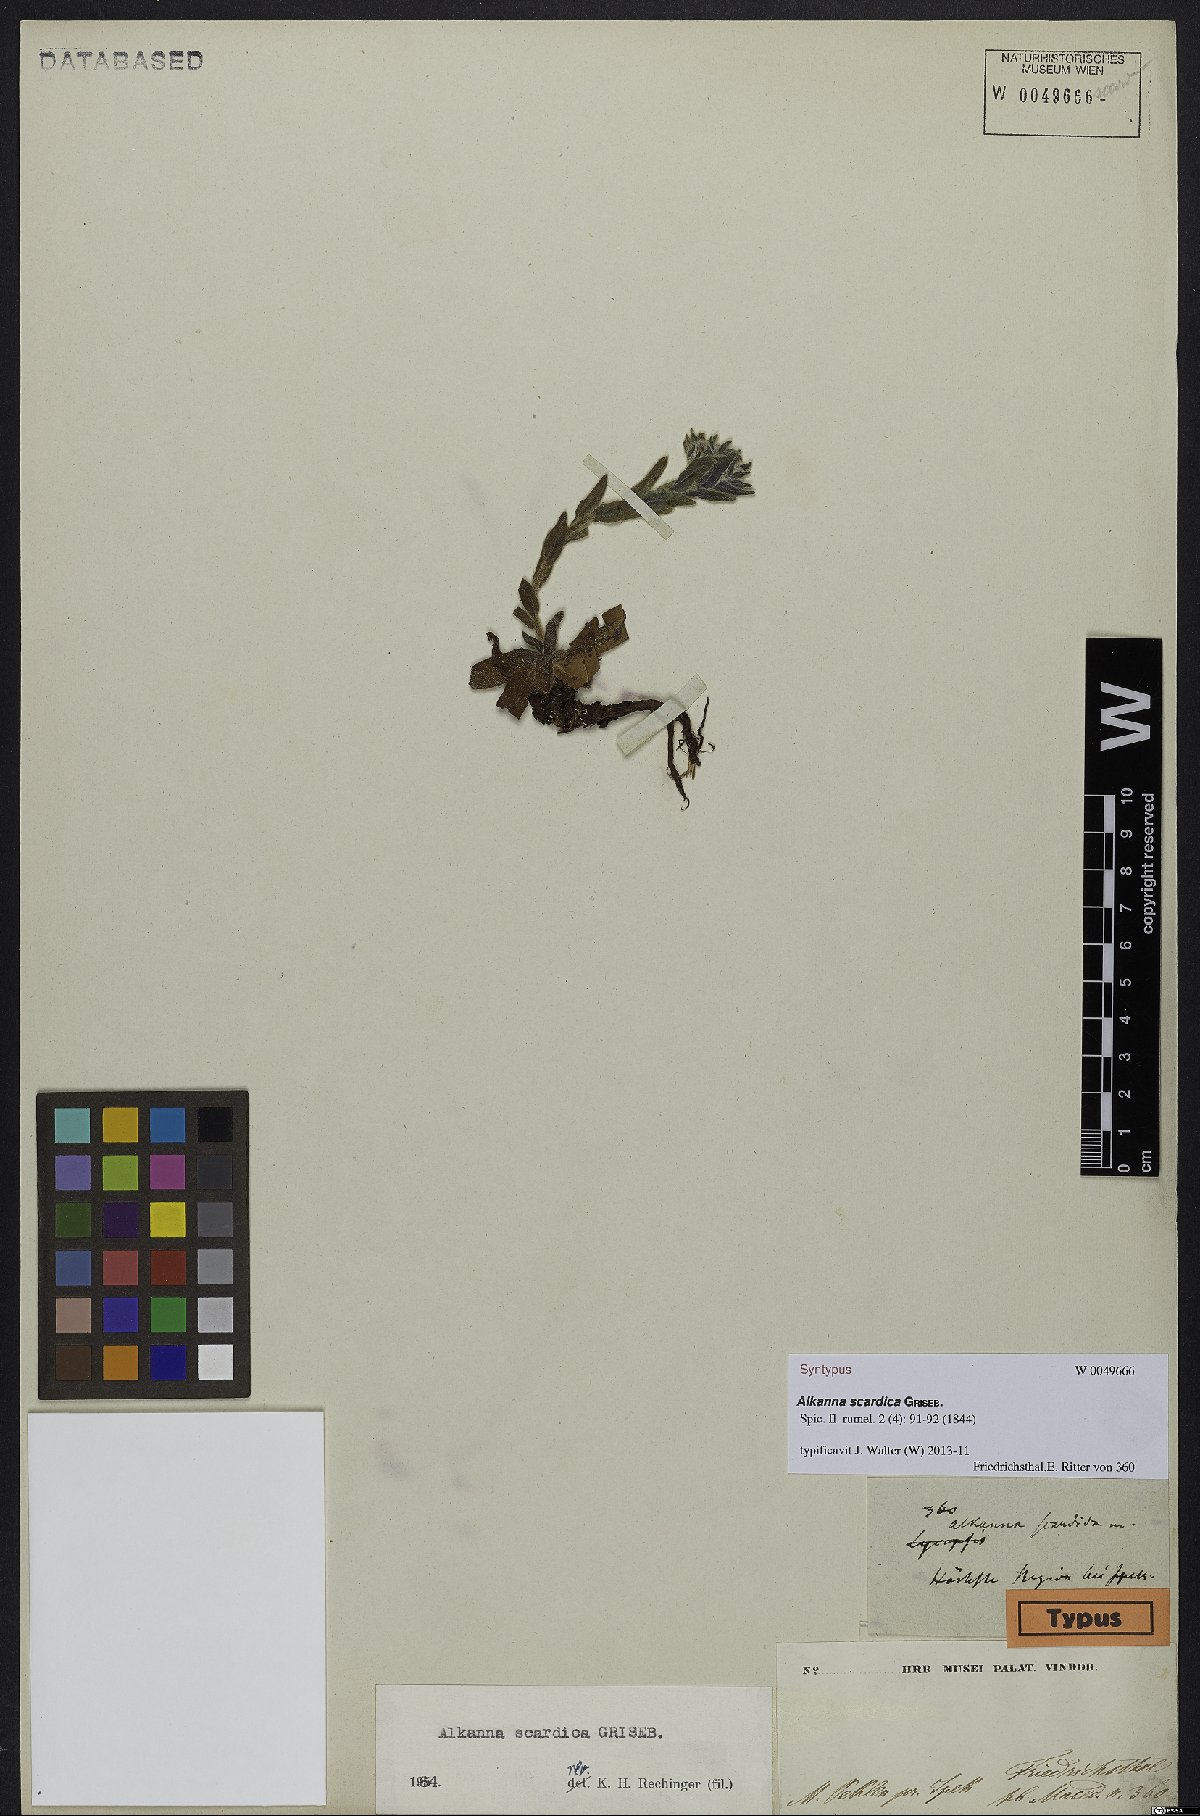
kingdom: Plantae
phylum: Tracheophyta
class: Magnoliopsida
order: Boraginales
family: Boraginaceae
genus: Alkanna
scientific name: Alkanna scardica
